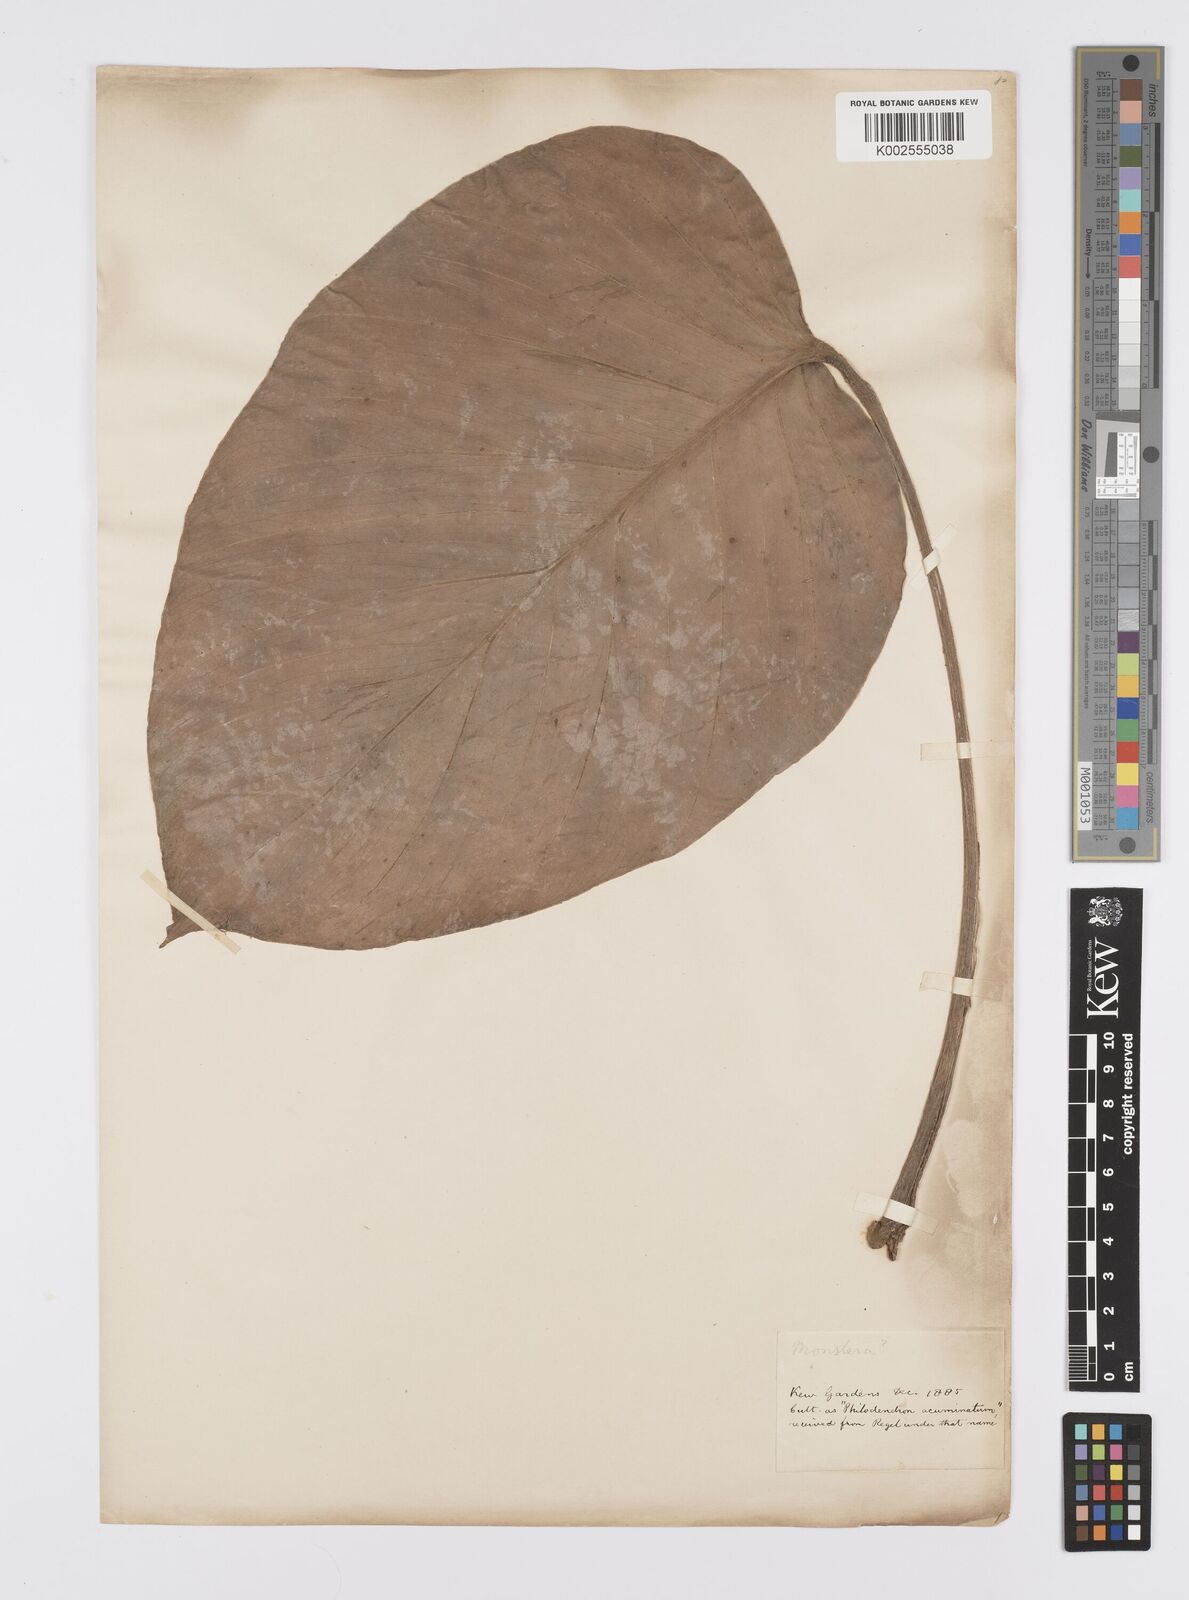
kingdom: Plantae
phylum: Tracheophyta
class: Liliopsida
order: Alismatales
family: Araceae
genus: Monstera
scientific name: Monstera
